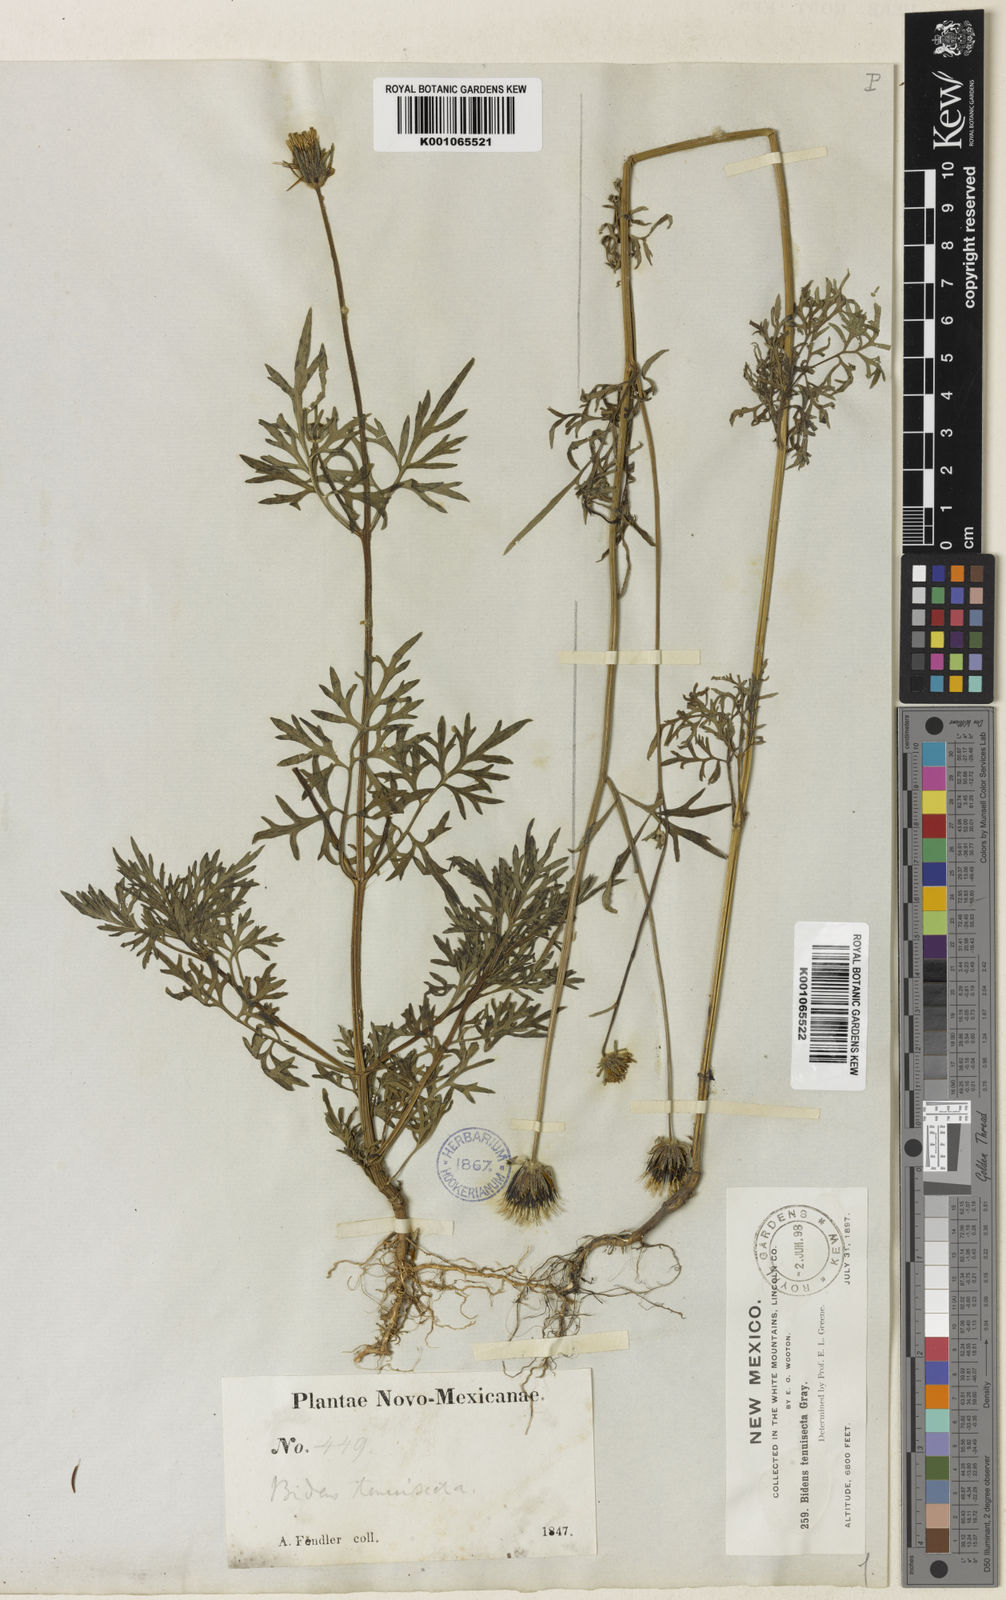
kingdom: Plantae
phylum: Tracheophyta
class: Magnoliopsida
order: Asterales
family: Asteraceae
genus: Bidens
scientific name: Bidens tenuisecta
